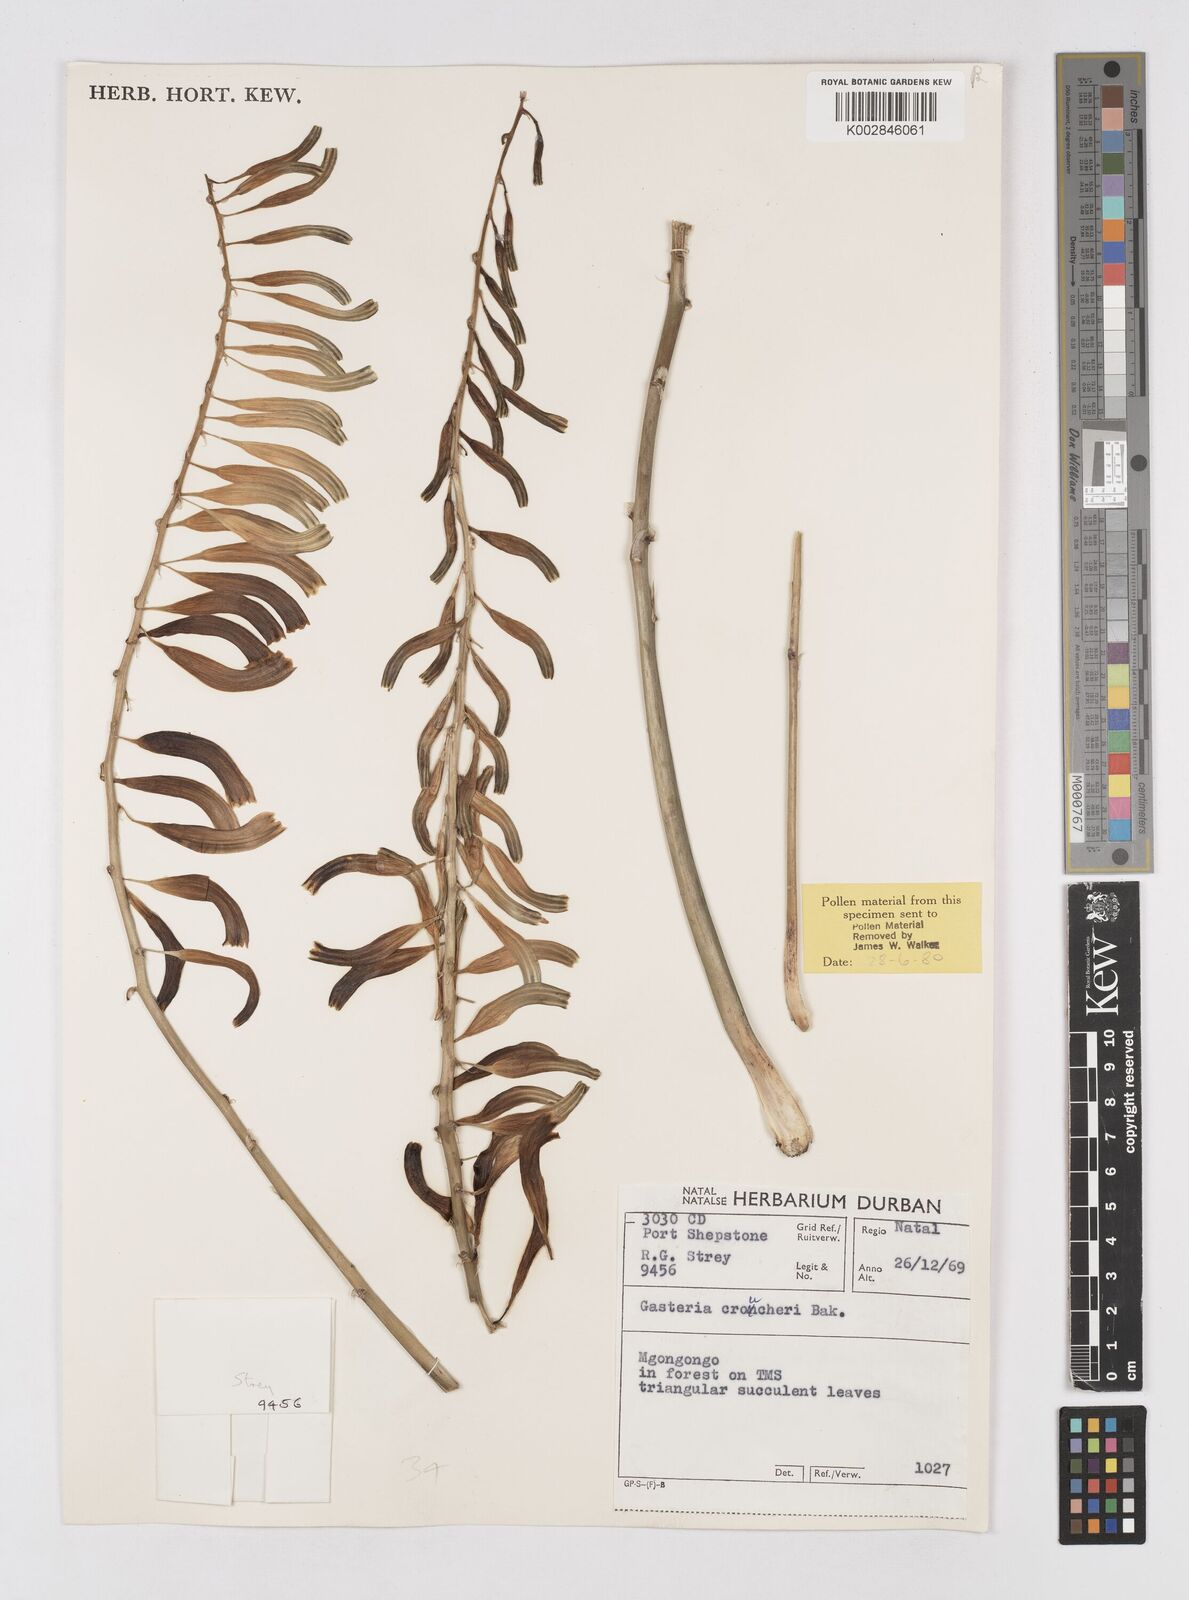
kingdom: Plantae
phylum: Tracheophyta
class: Liliopsida
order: Asparagales
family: Asphodelaceae
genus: Gasteria
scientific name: Gasteria croucheri
